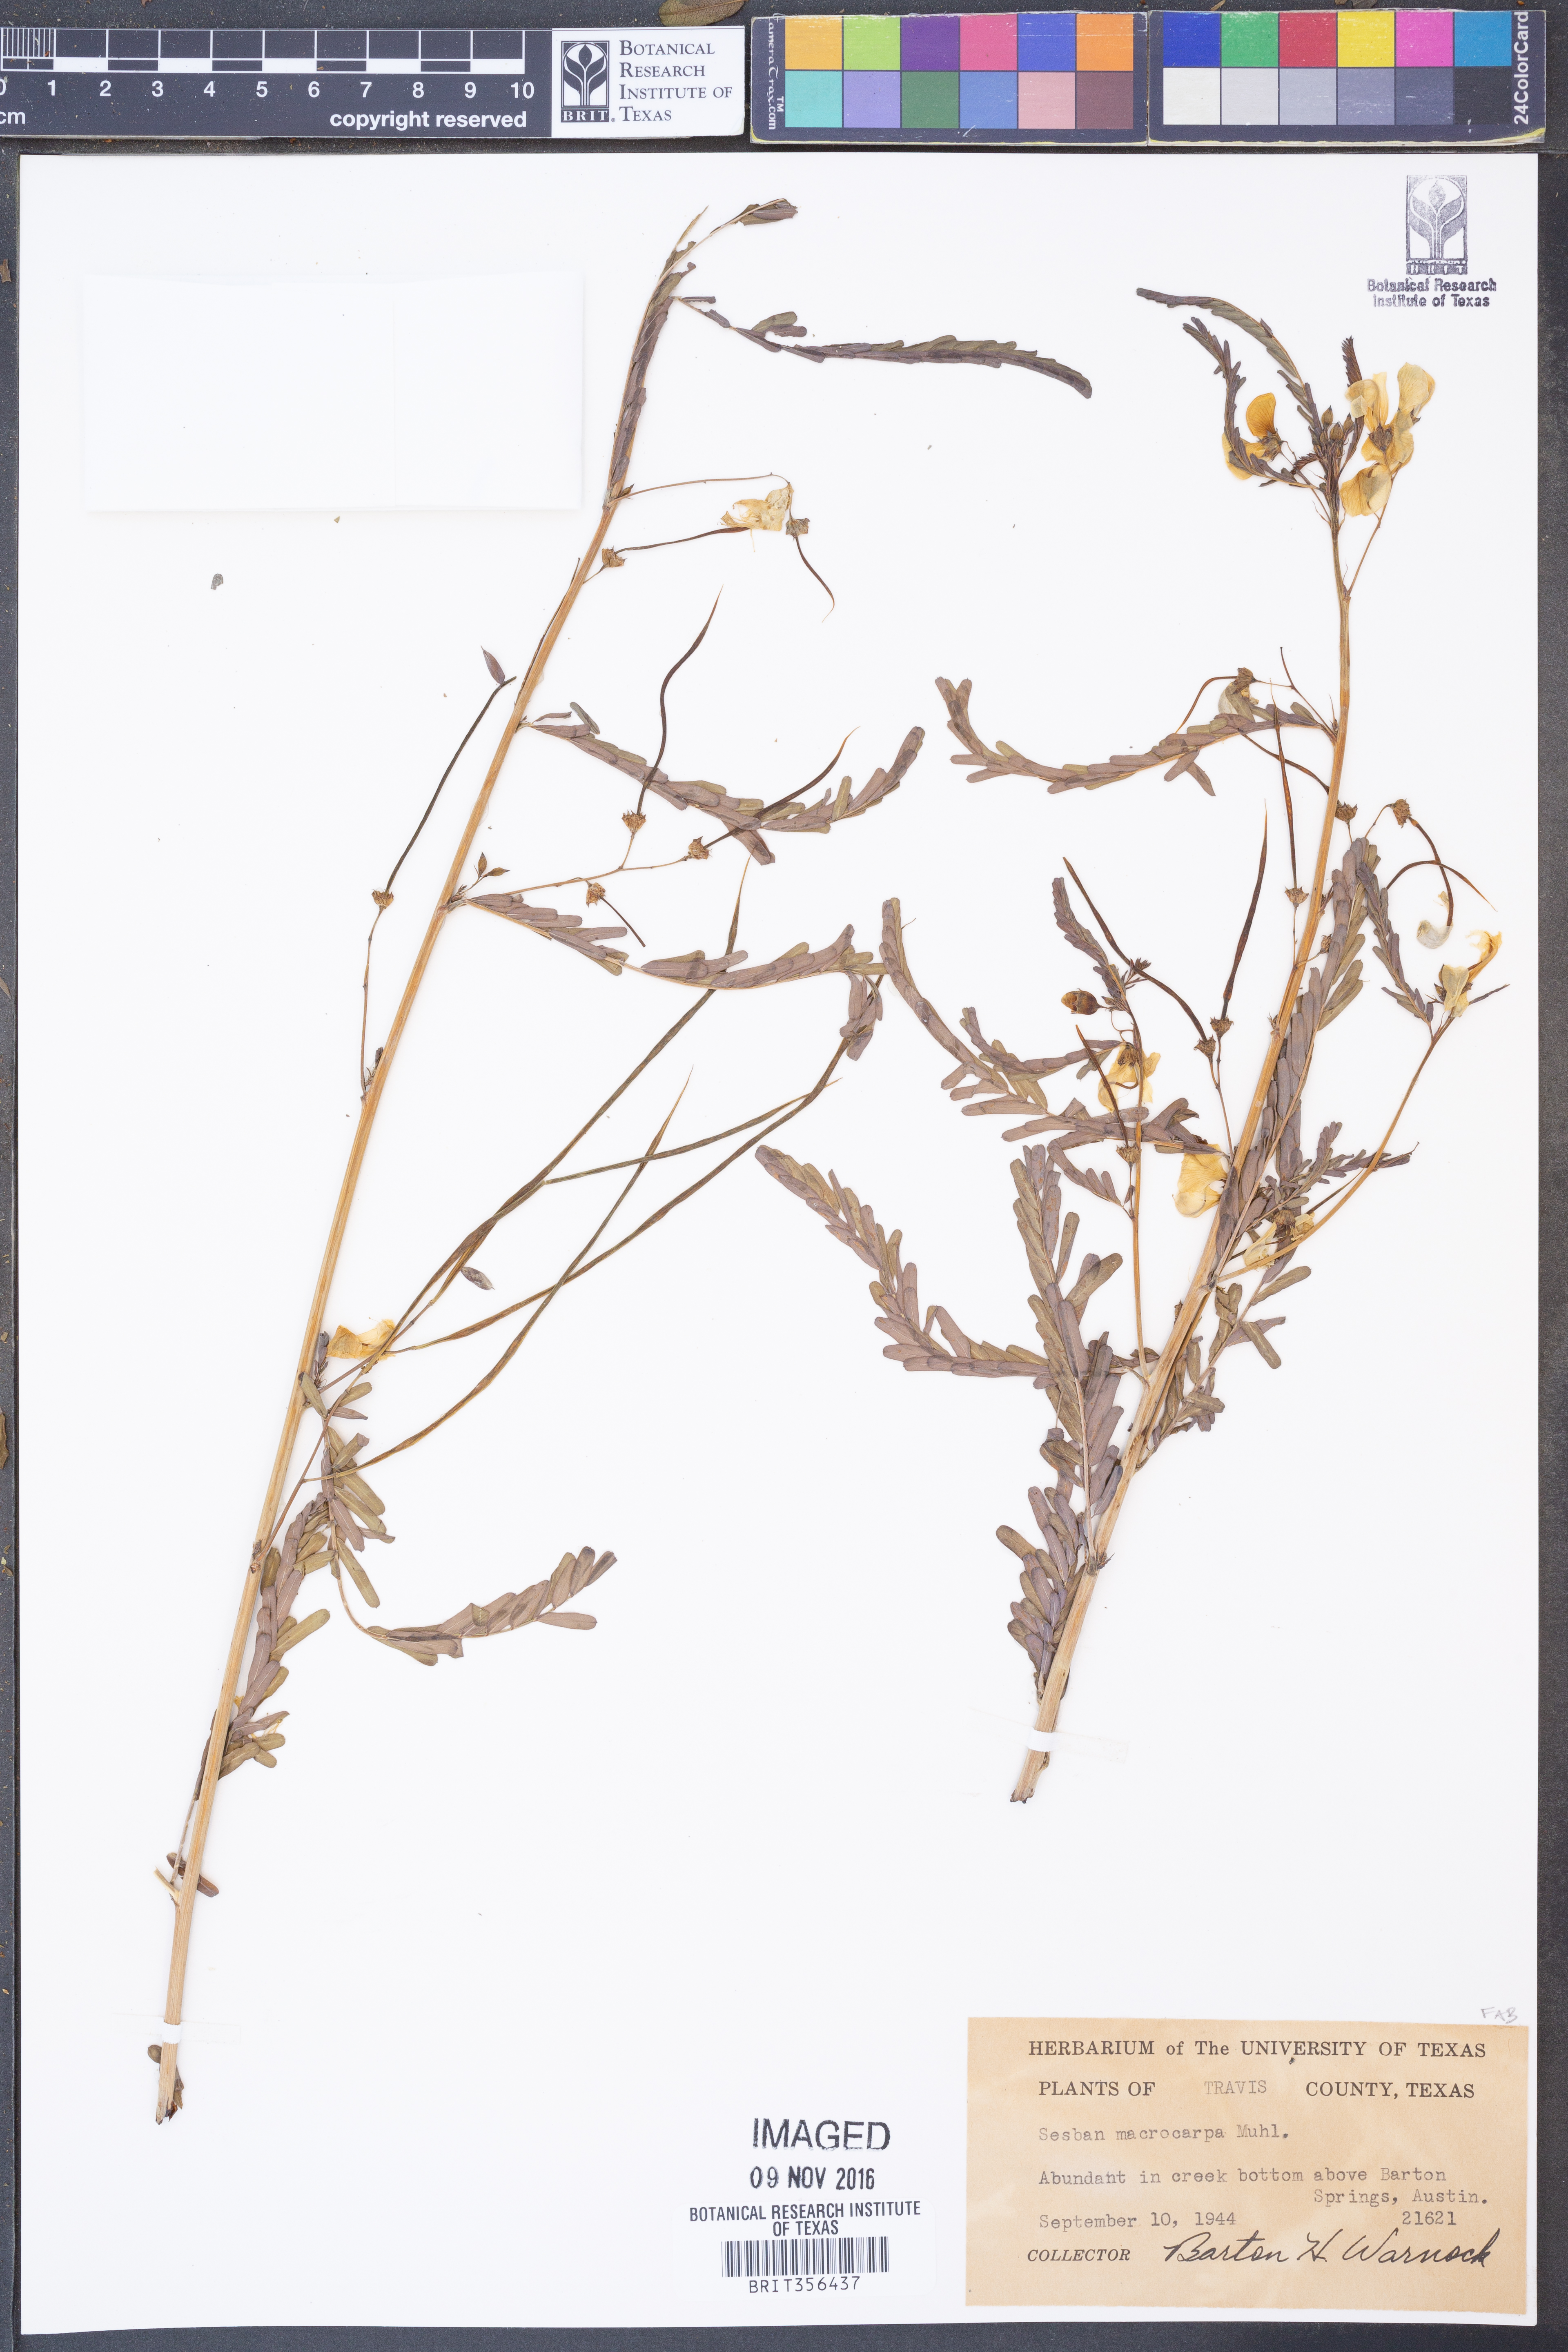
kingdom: Plantae
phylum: Tracheophyta
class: Magnoliopsida
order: Fabales
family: Fabaceae
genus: Sesbania
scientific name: Sesbania vesicaria
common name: Bagpod
